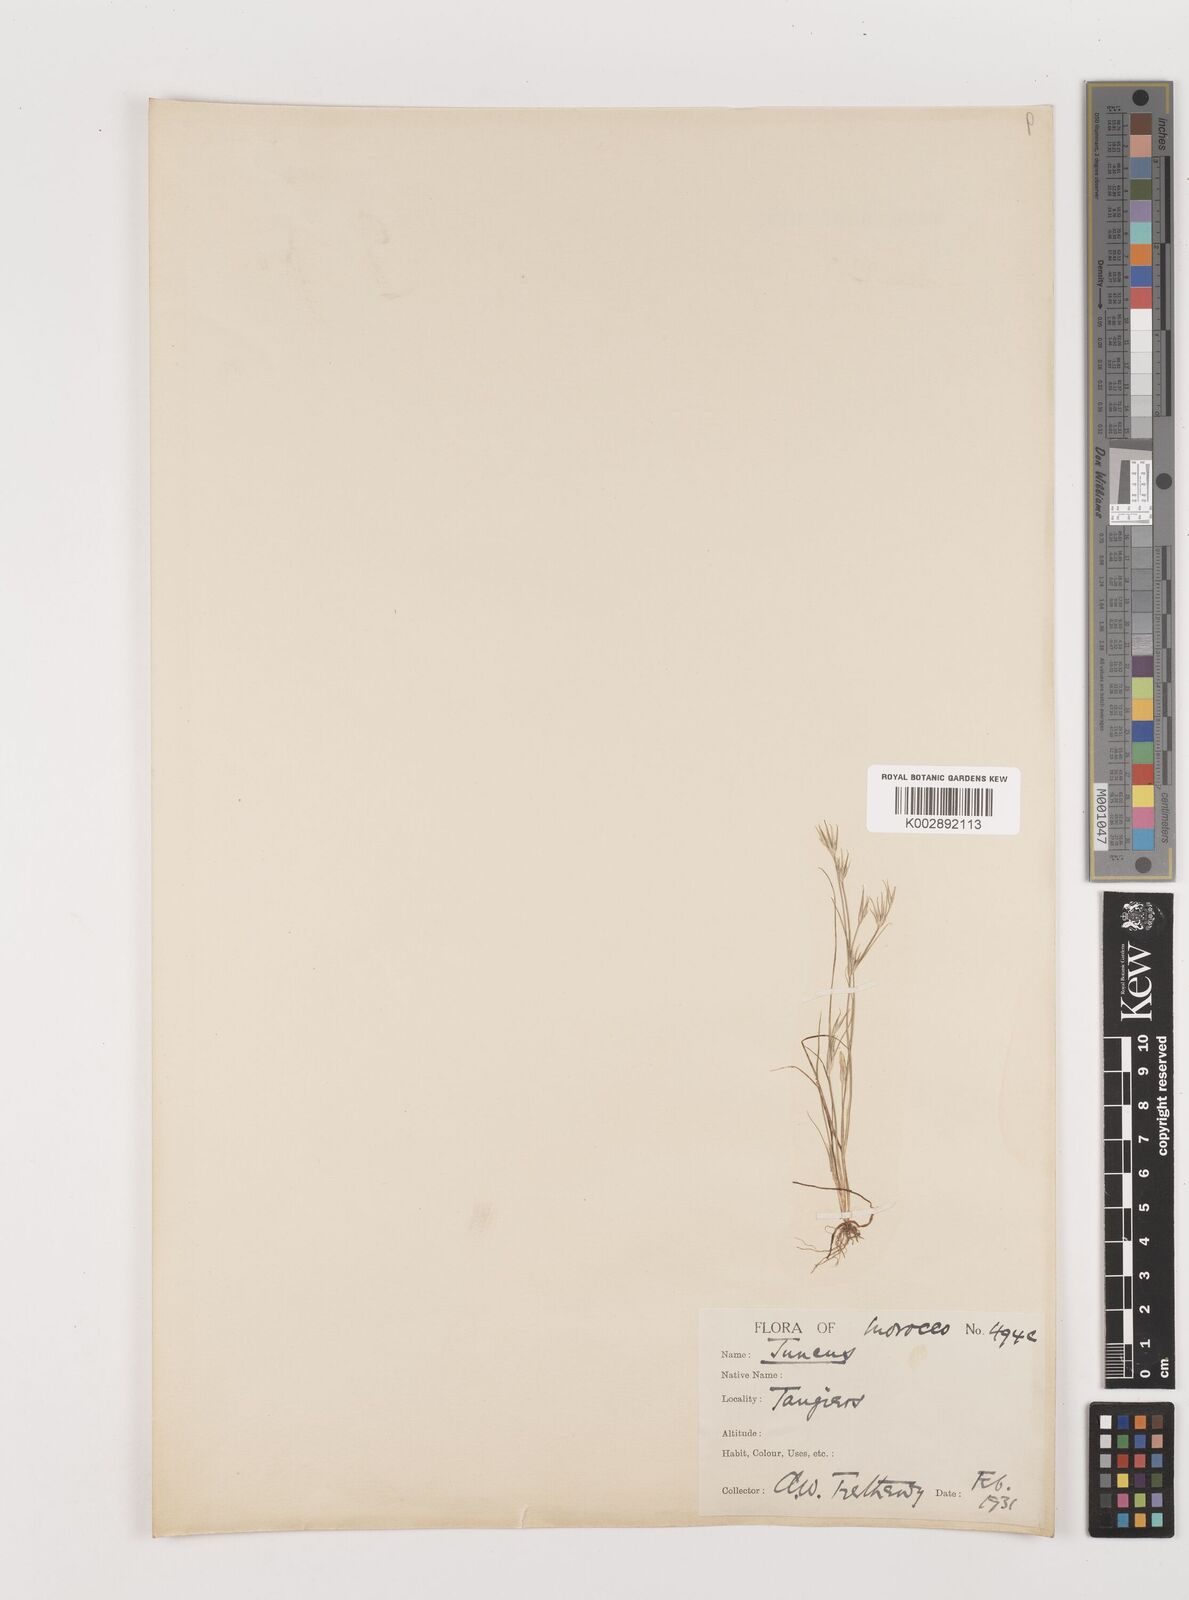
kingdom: Plantae
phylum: Tracheophyta
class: Liliopsida
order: Poales
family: Juncaceae
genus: Juncus
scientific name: Juncus
